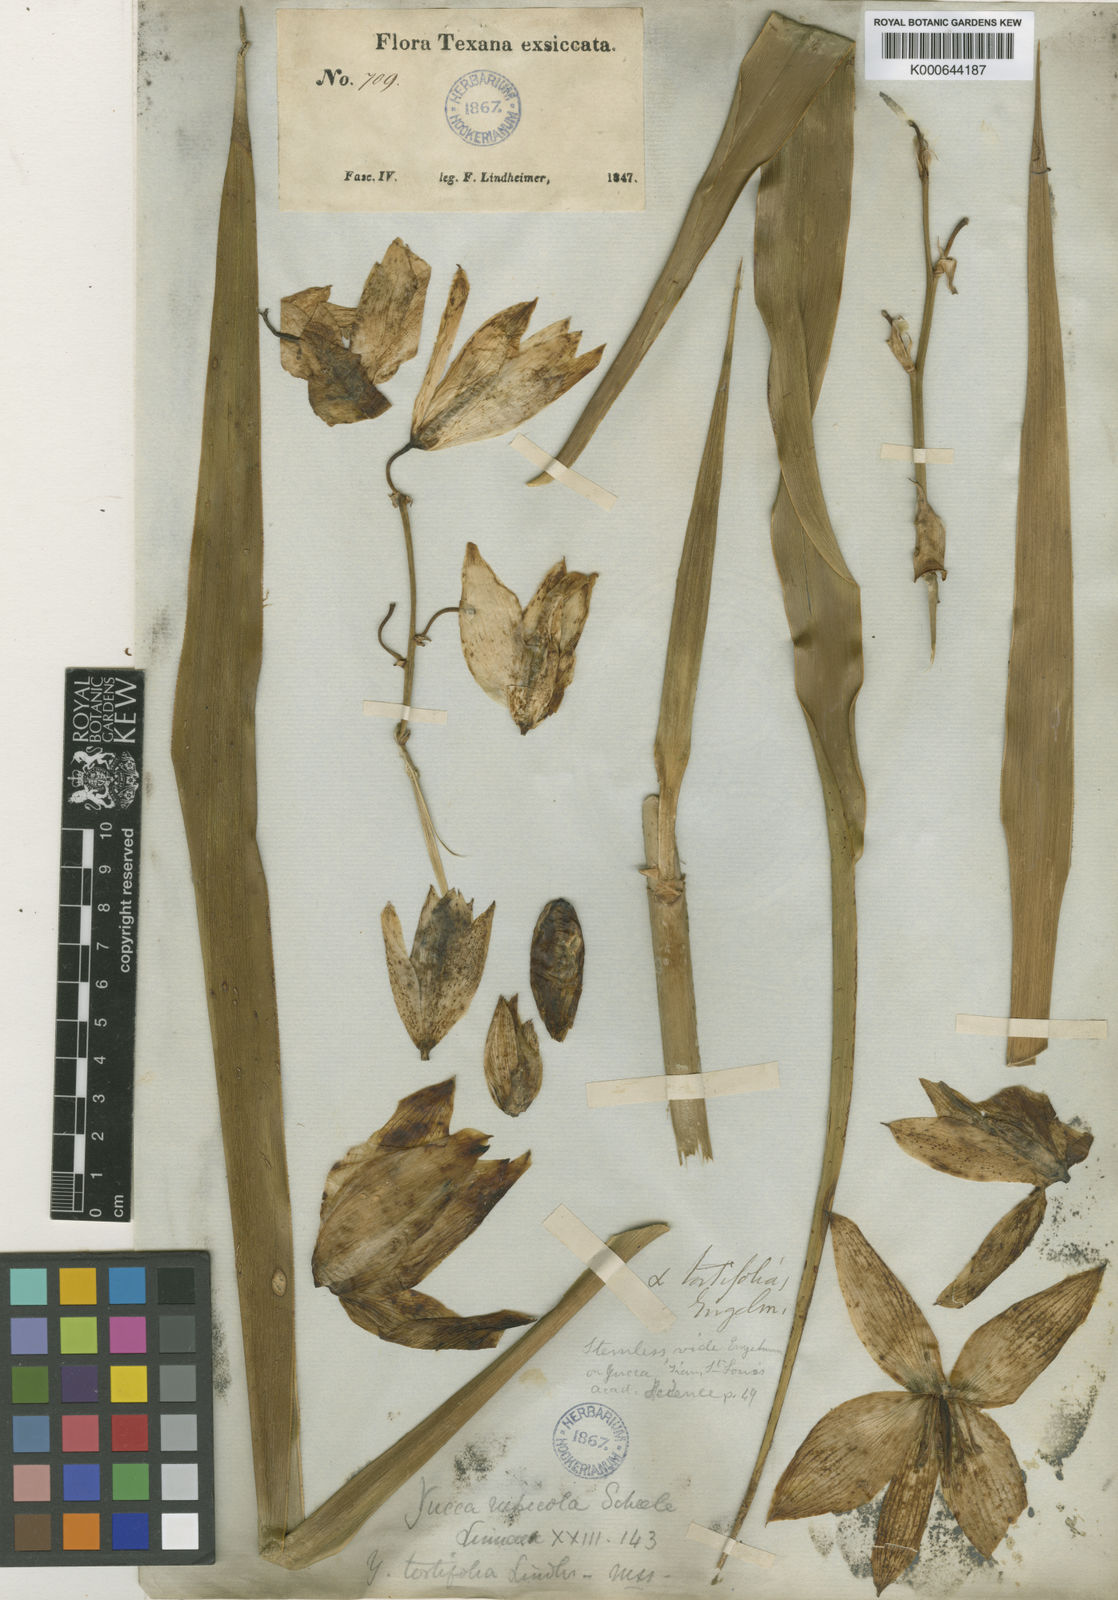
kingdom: Plantae
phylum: Tracheophyta
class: Liliopsida
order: Asparagales
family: Asparagaceae
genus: Yucca
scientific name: Yucca rupicola
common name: Twisted-leaf spanish-dagger
